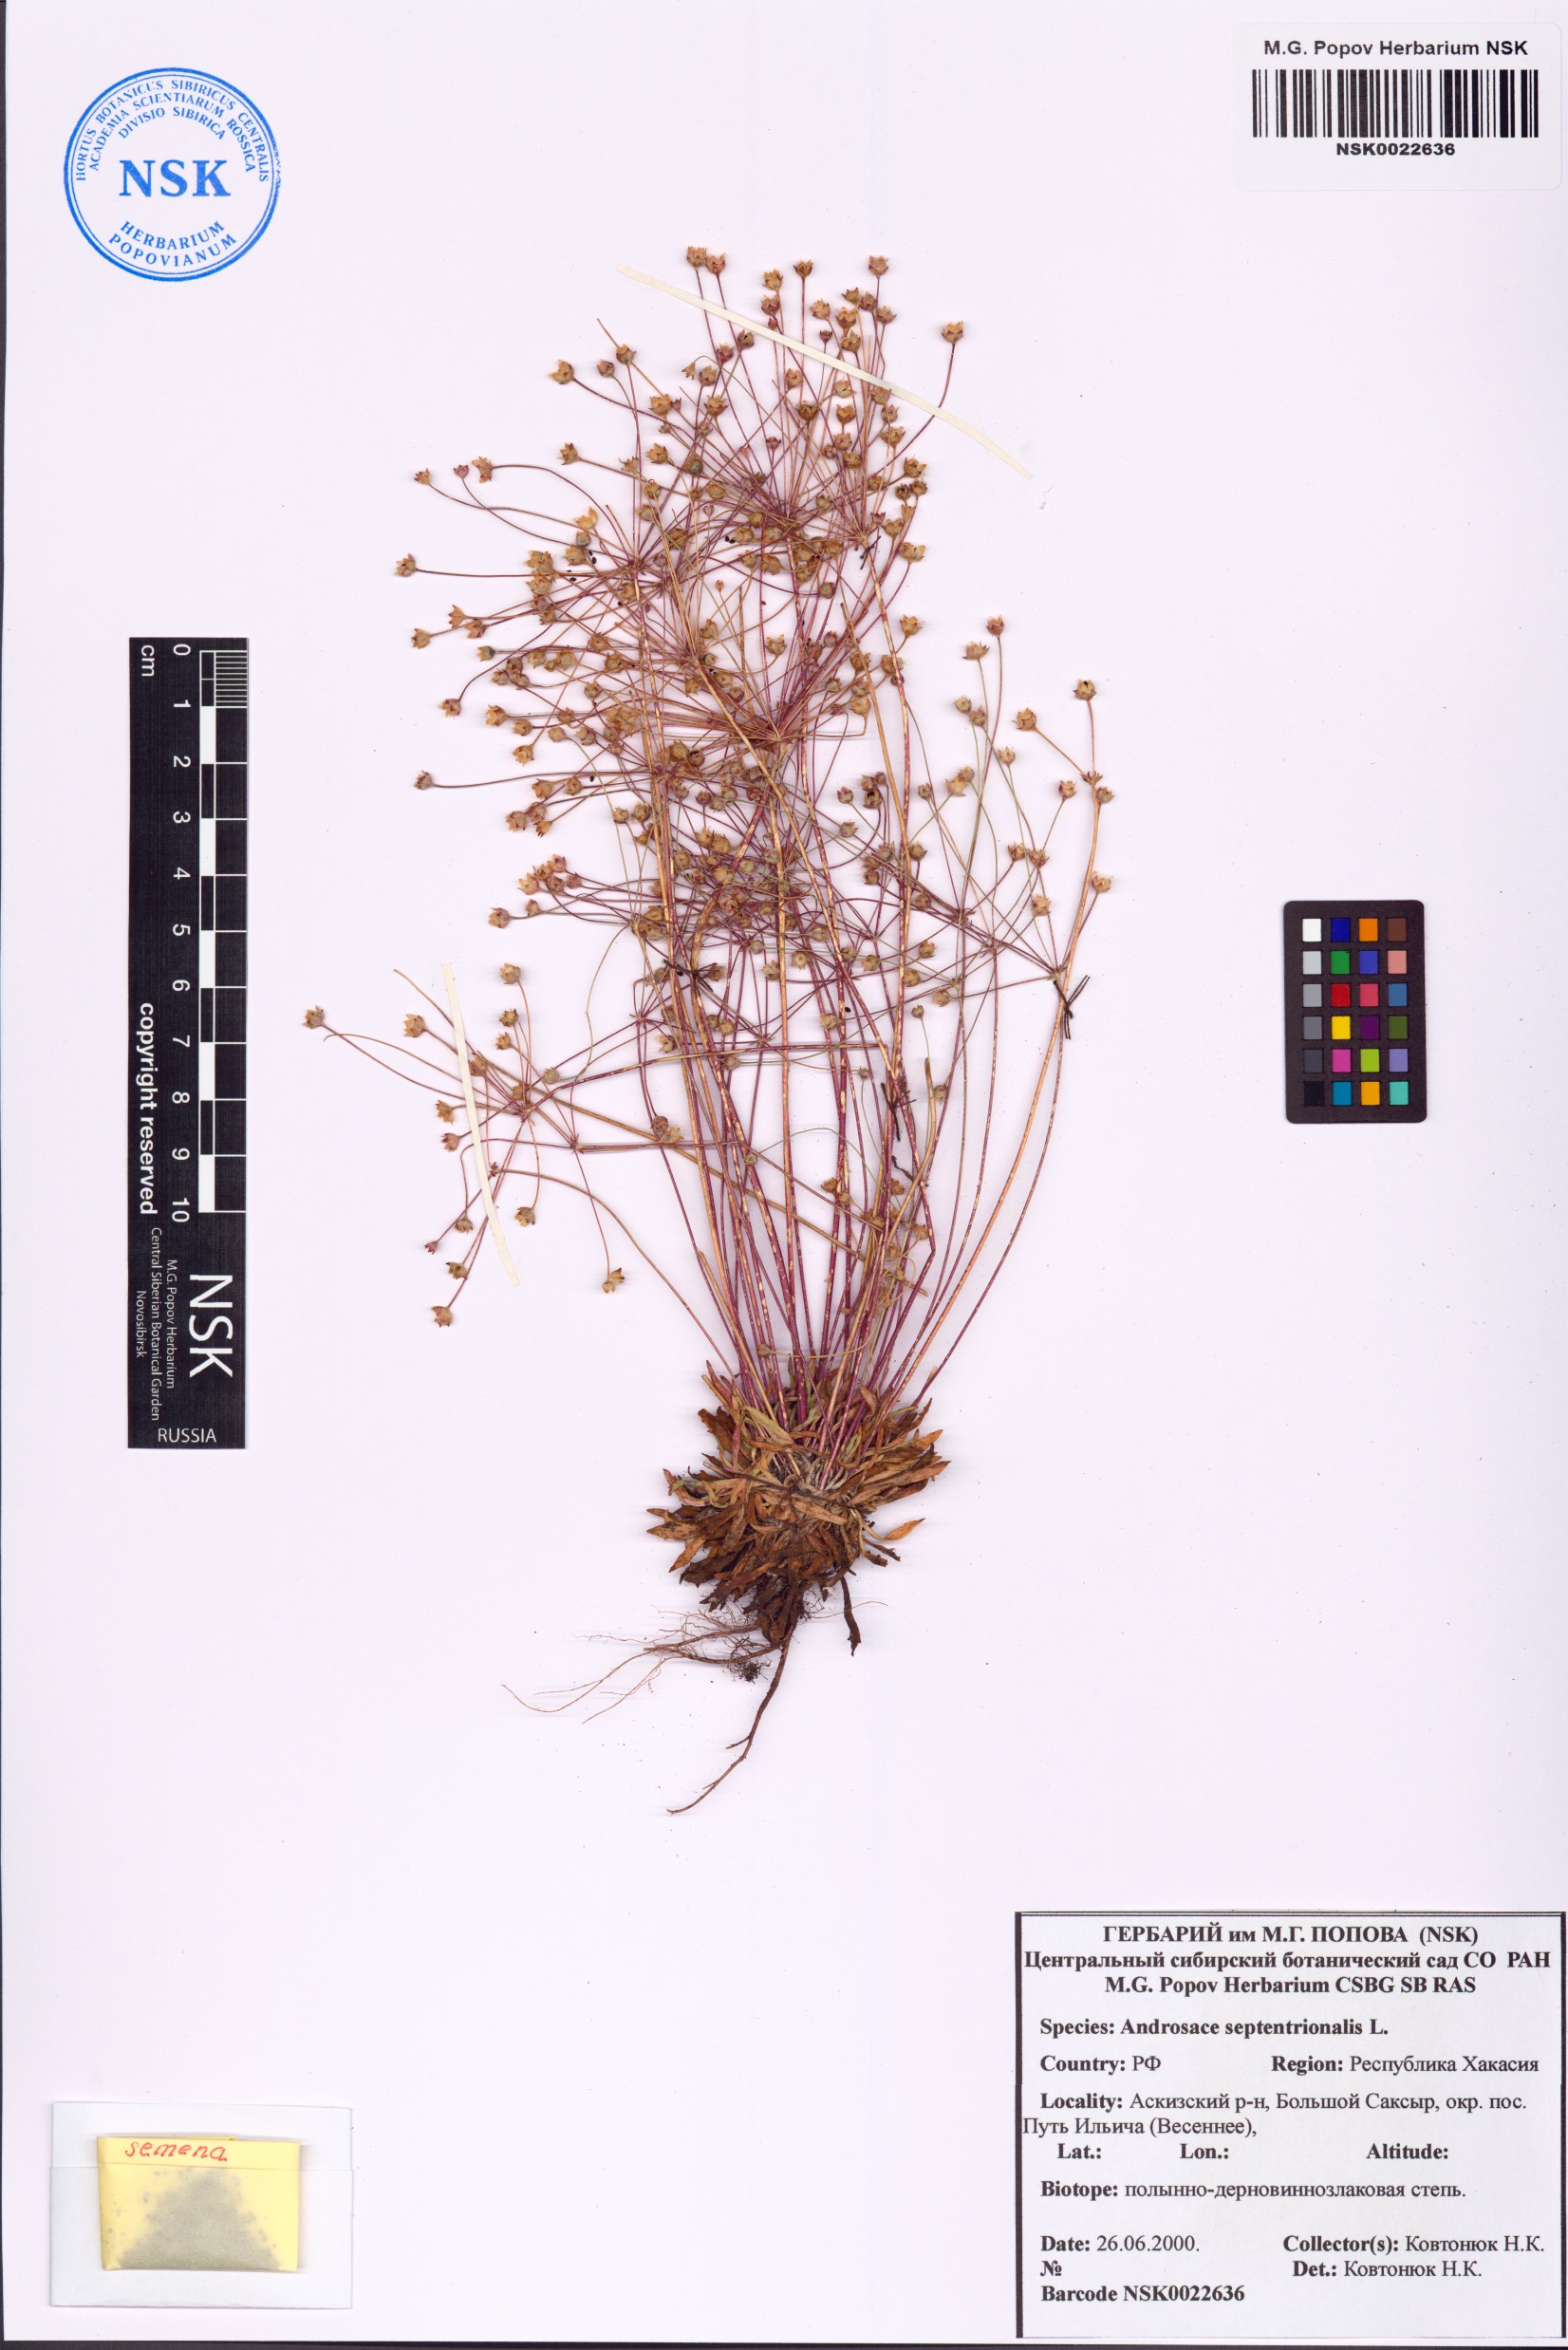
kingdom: Plantae
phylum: Tracheophyta
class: Magnoliopsida
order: Ericales
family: Primulaceae
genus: Androsace
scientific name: Androsace septentrionalis
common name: Hairy northern fairy-candelabra
